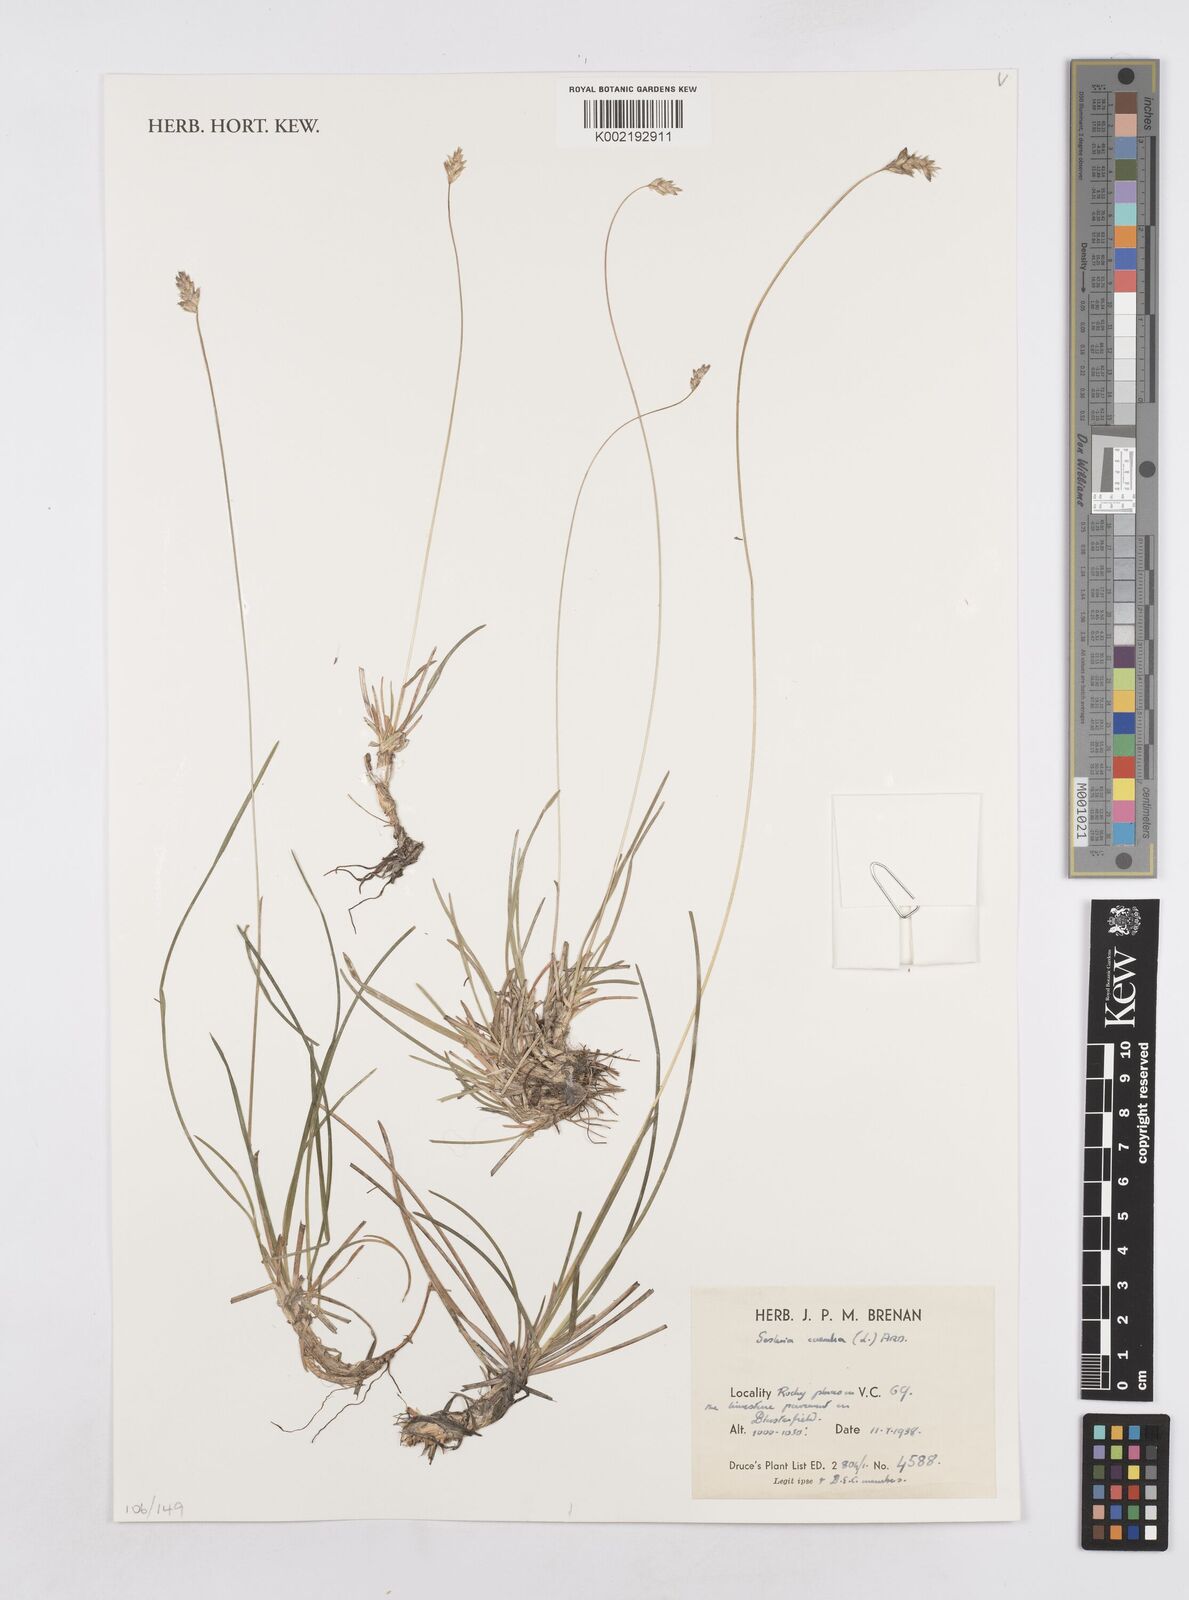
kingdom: Plantae
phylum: Tracheophyta
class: Liliopsida
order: Poales
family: Poaceae
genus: Sesleria
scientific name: Sesleria caerulea
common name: Blue moor-grass
